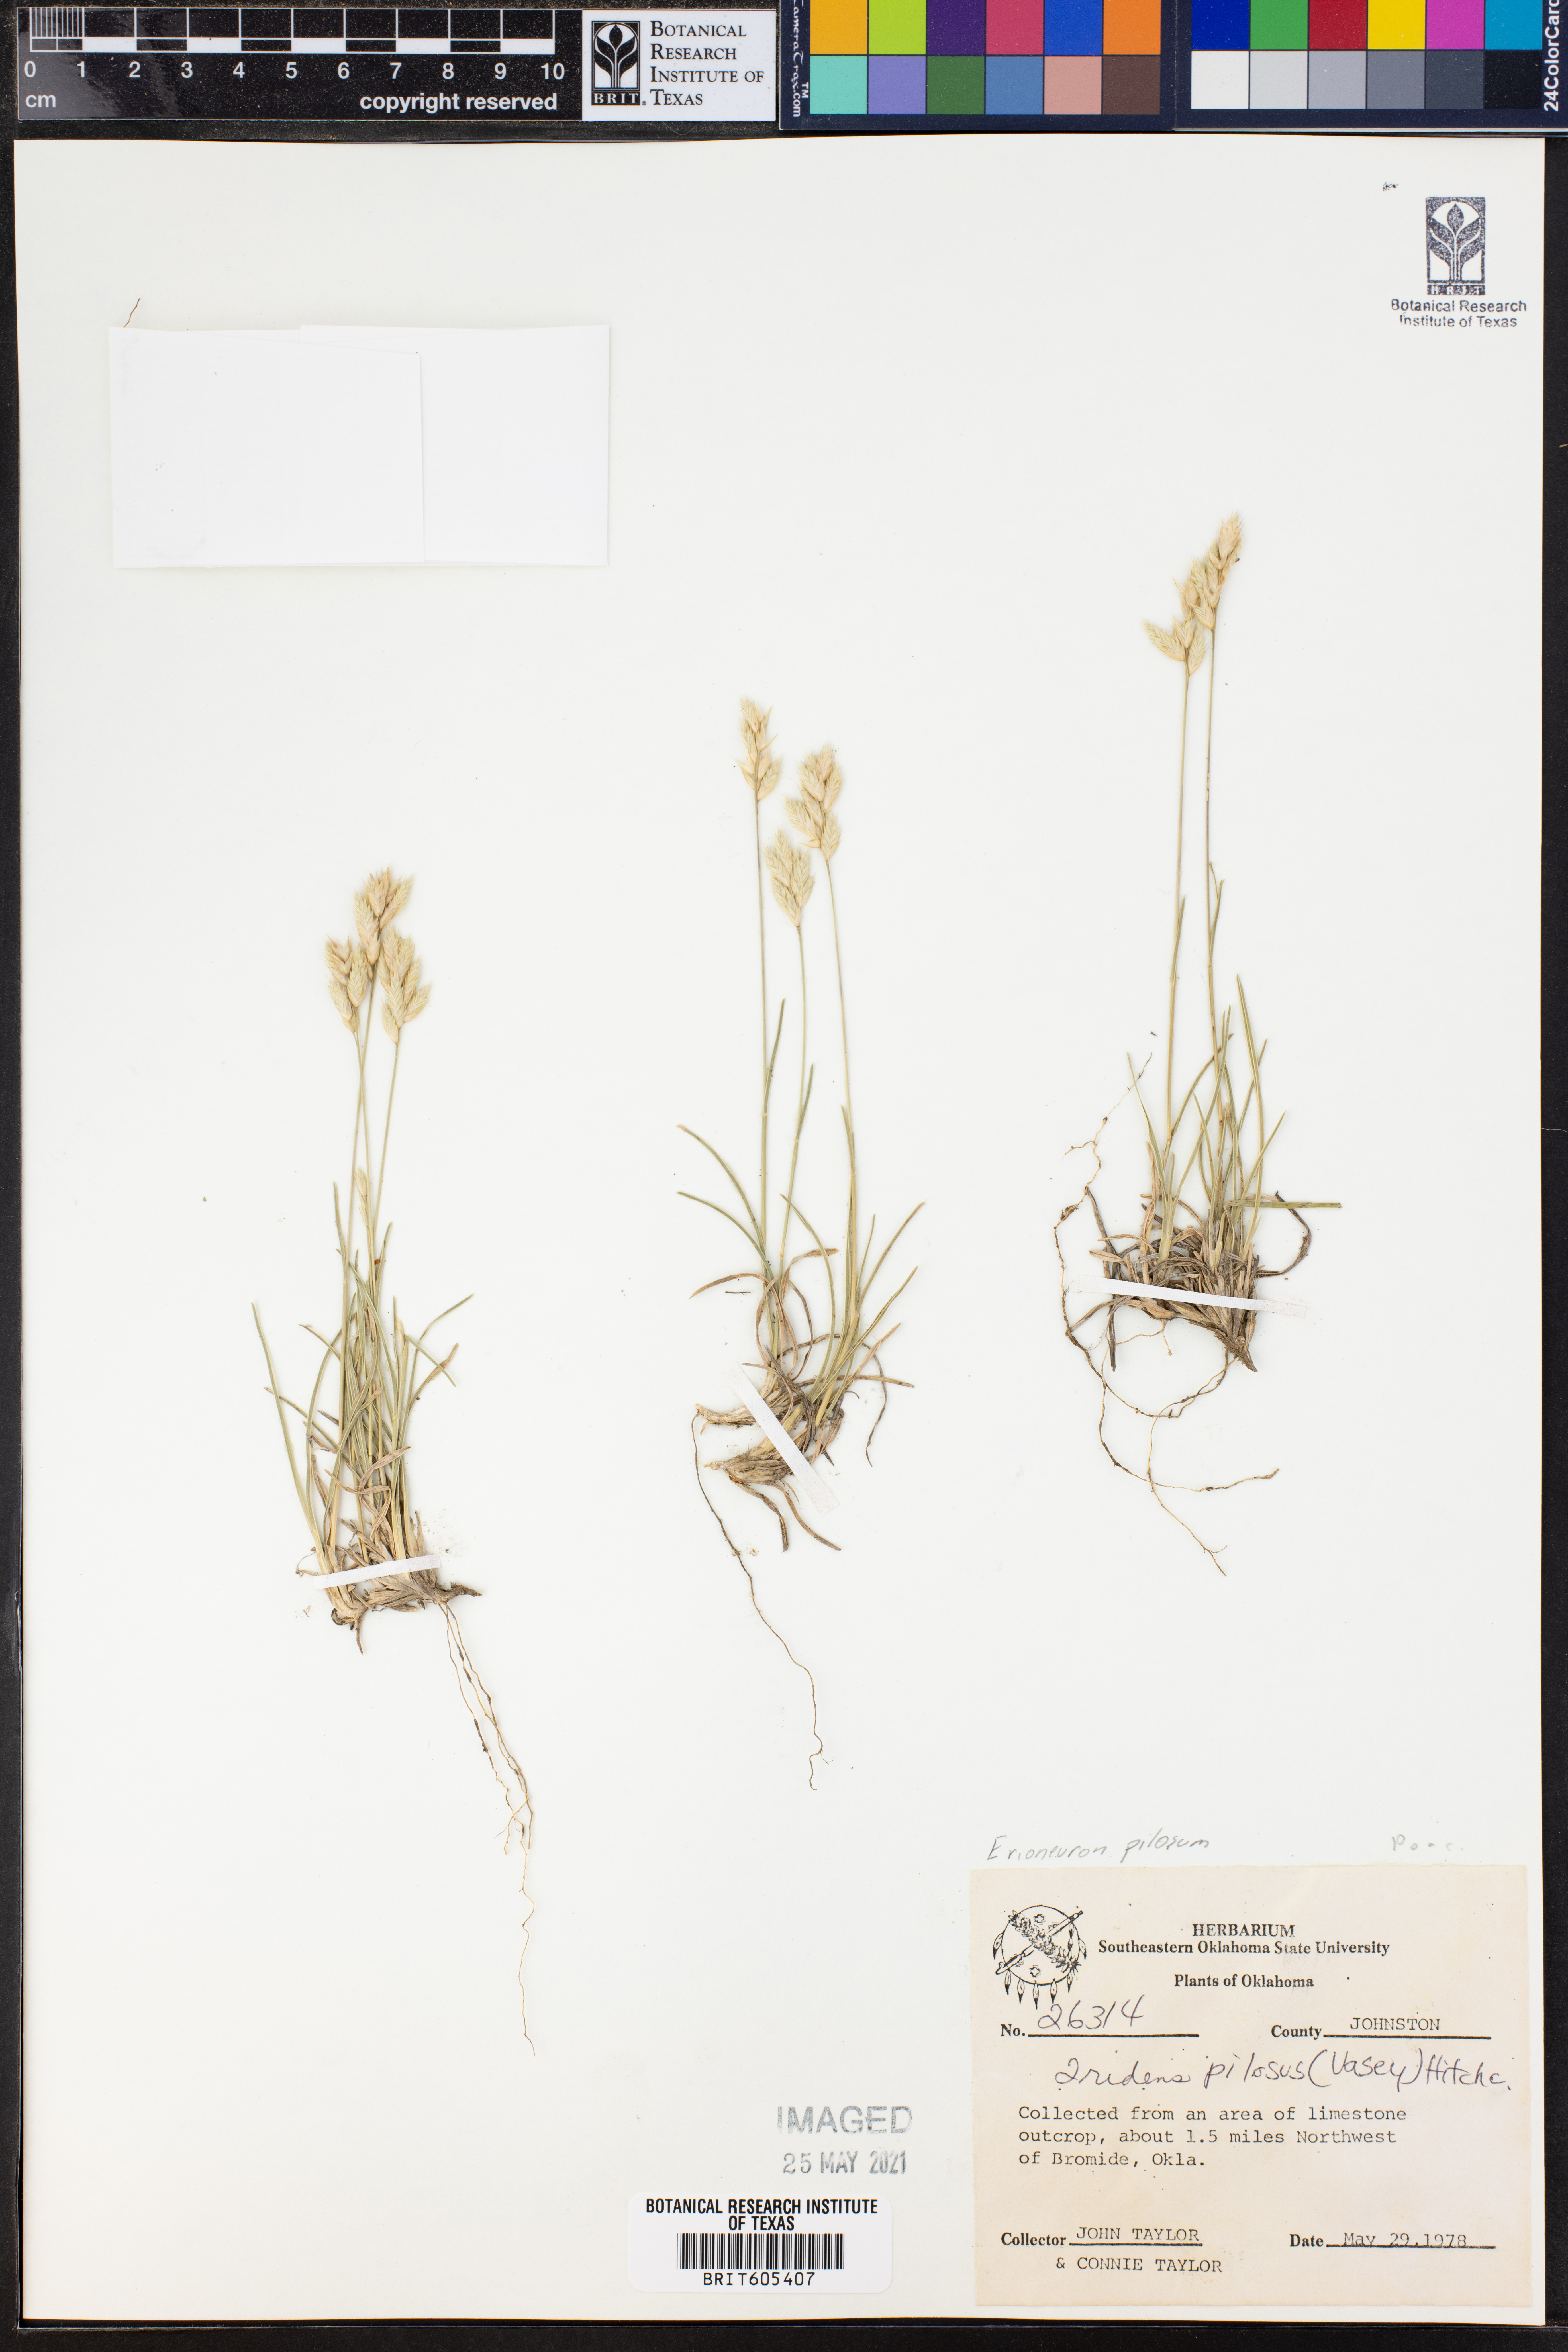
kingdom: Plantae
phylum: Tracheophyta
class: Liliopsida
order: Poales
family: Poaceae
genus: Tridentopsis
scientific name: Tridentopsis mutica
